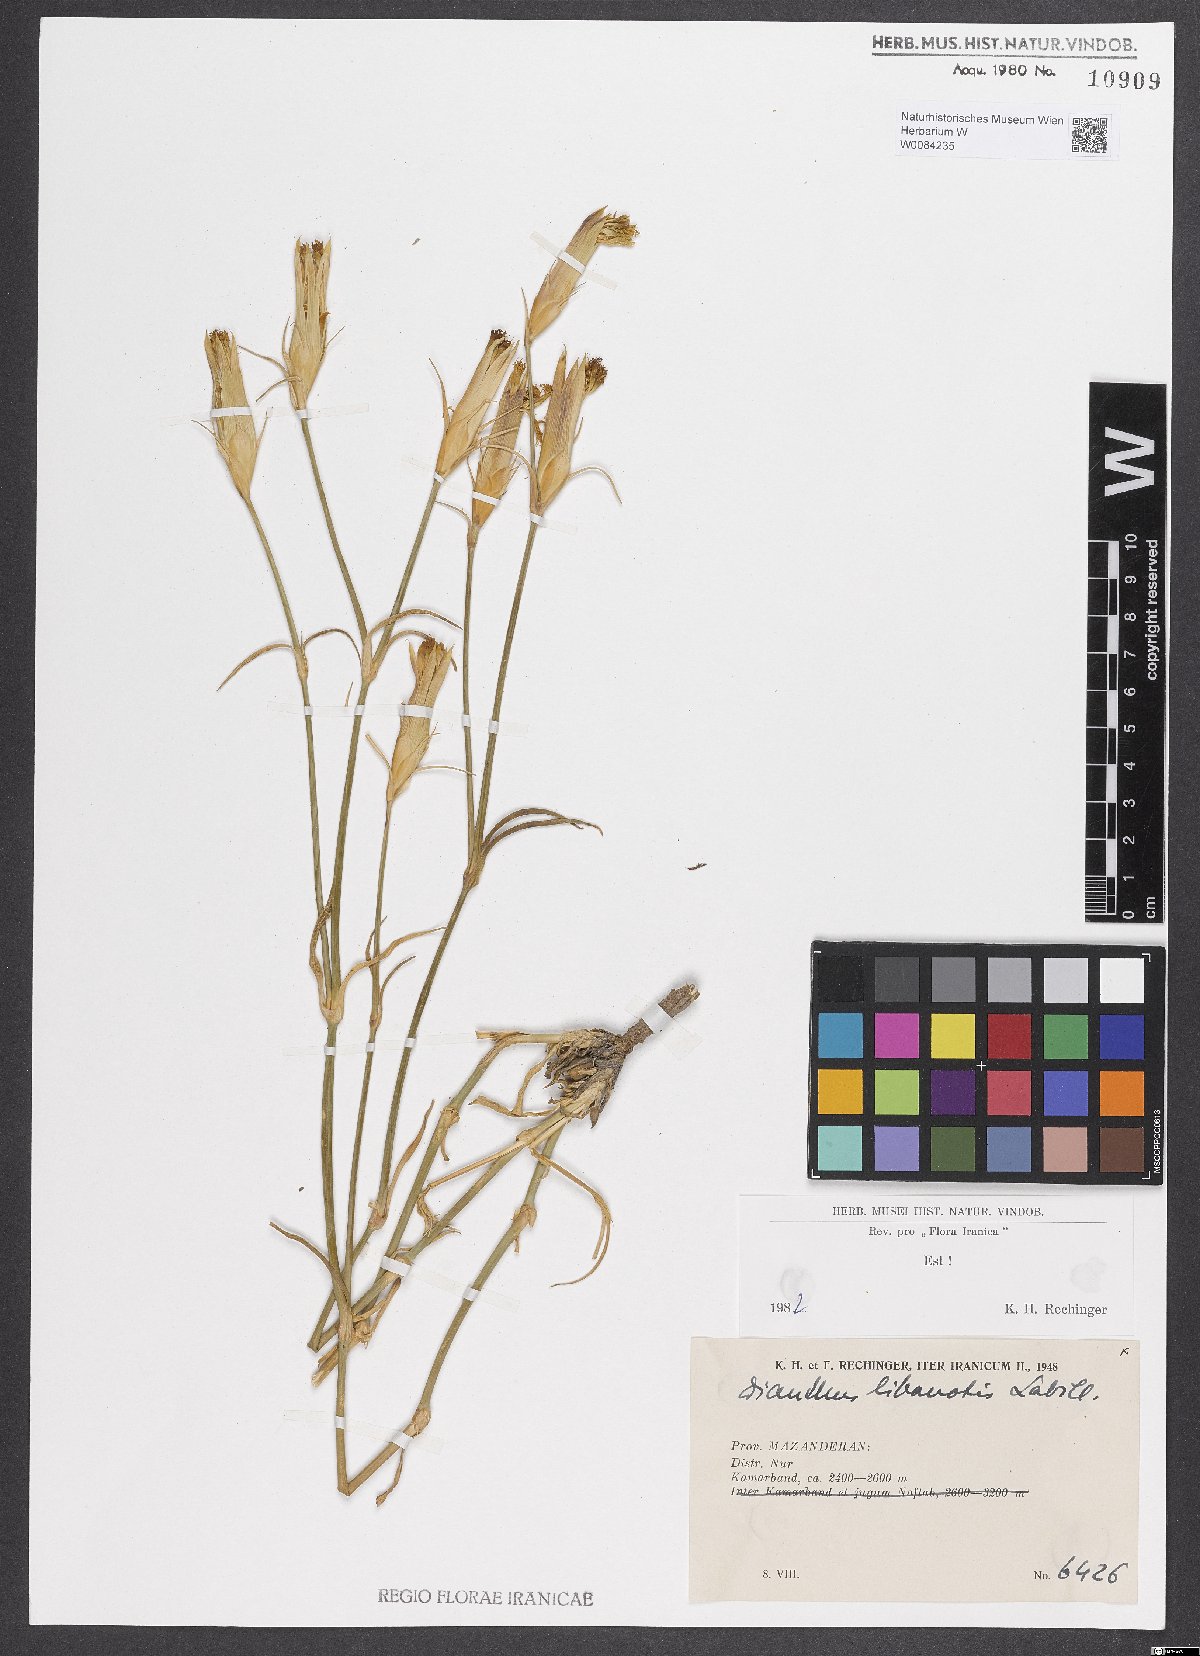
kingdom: Plantae
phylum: Tracheophyta
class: Magnoliopsida
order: Caryophyllales
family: Caryophyllaceae
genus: Dianthus
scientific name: Dianthus libanotis
